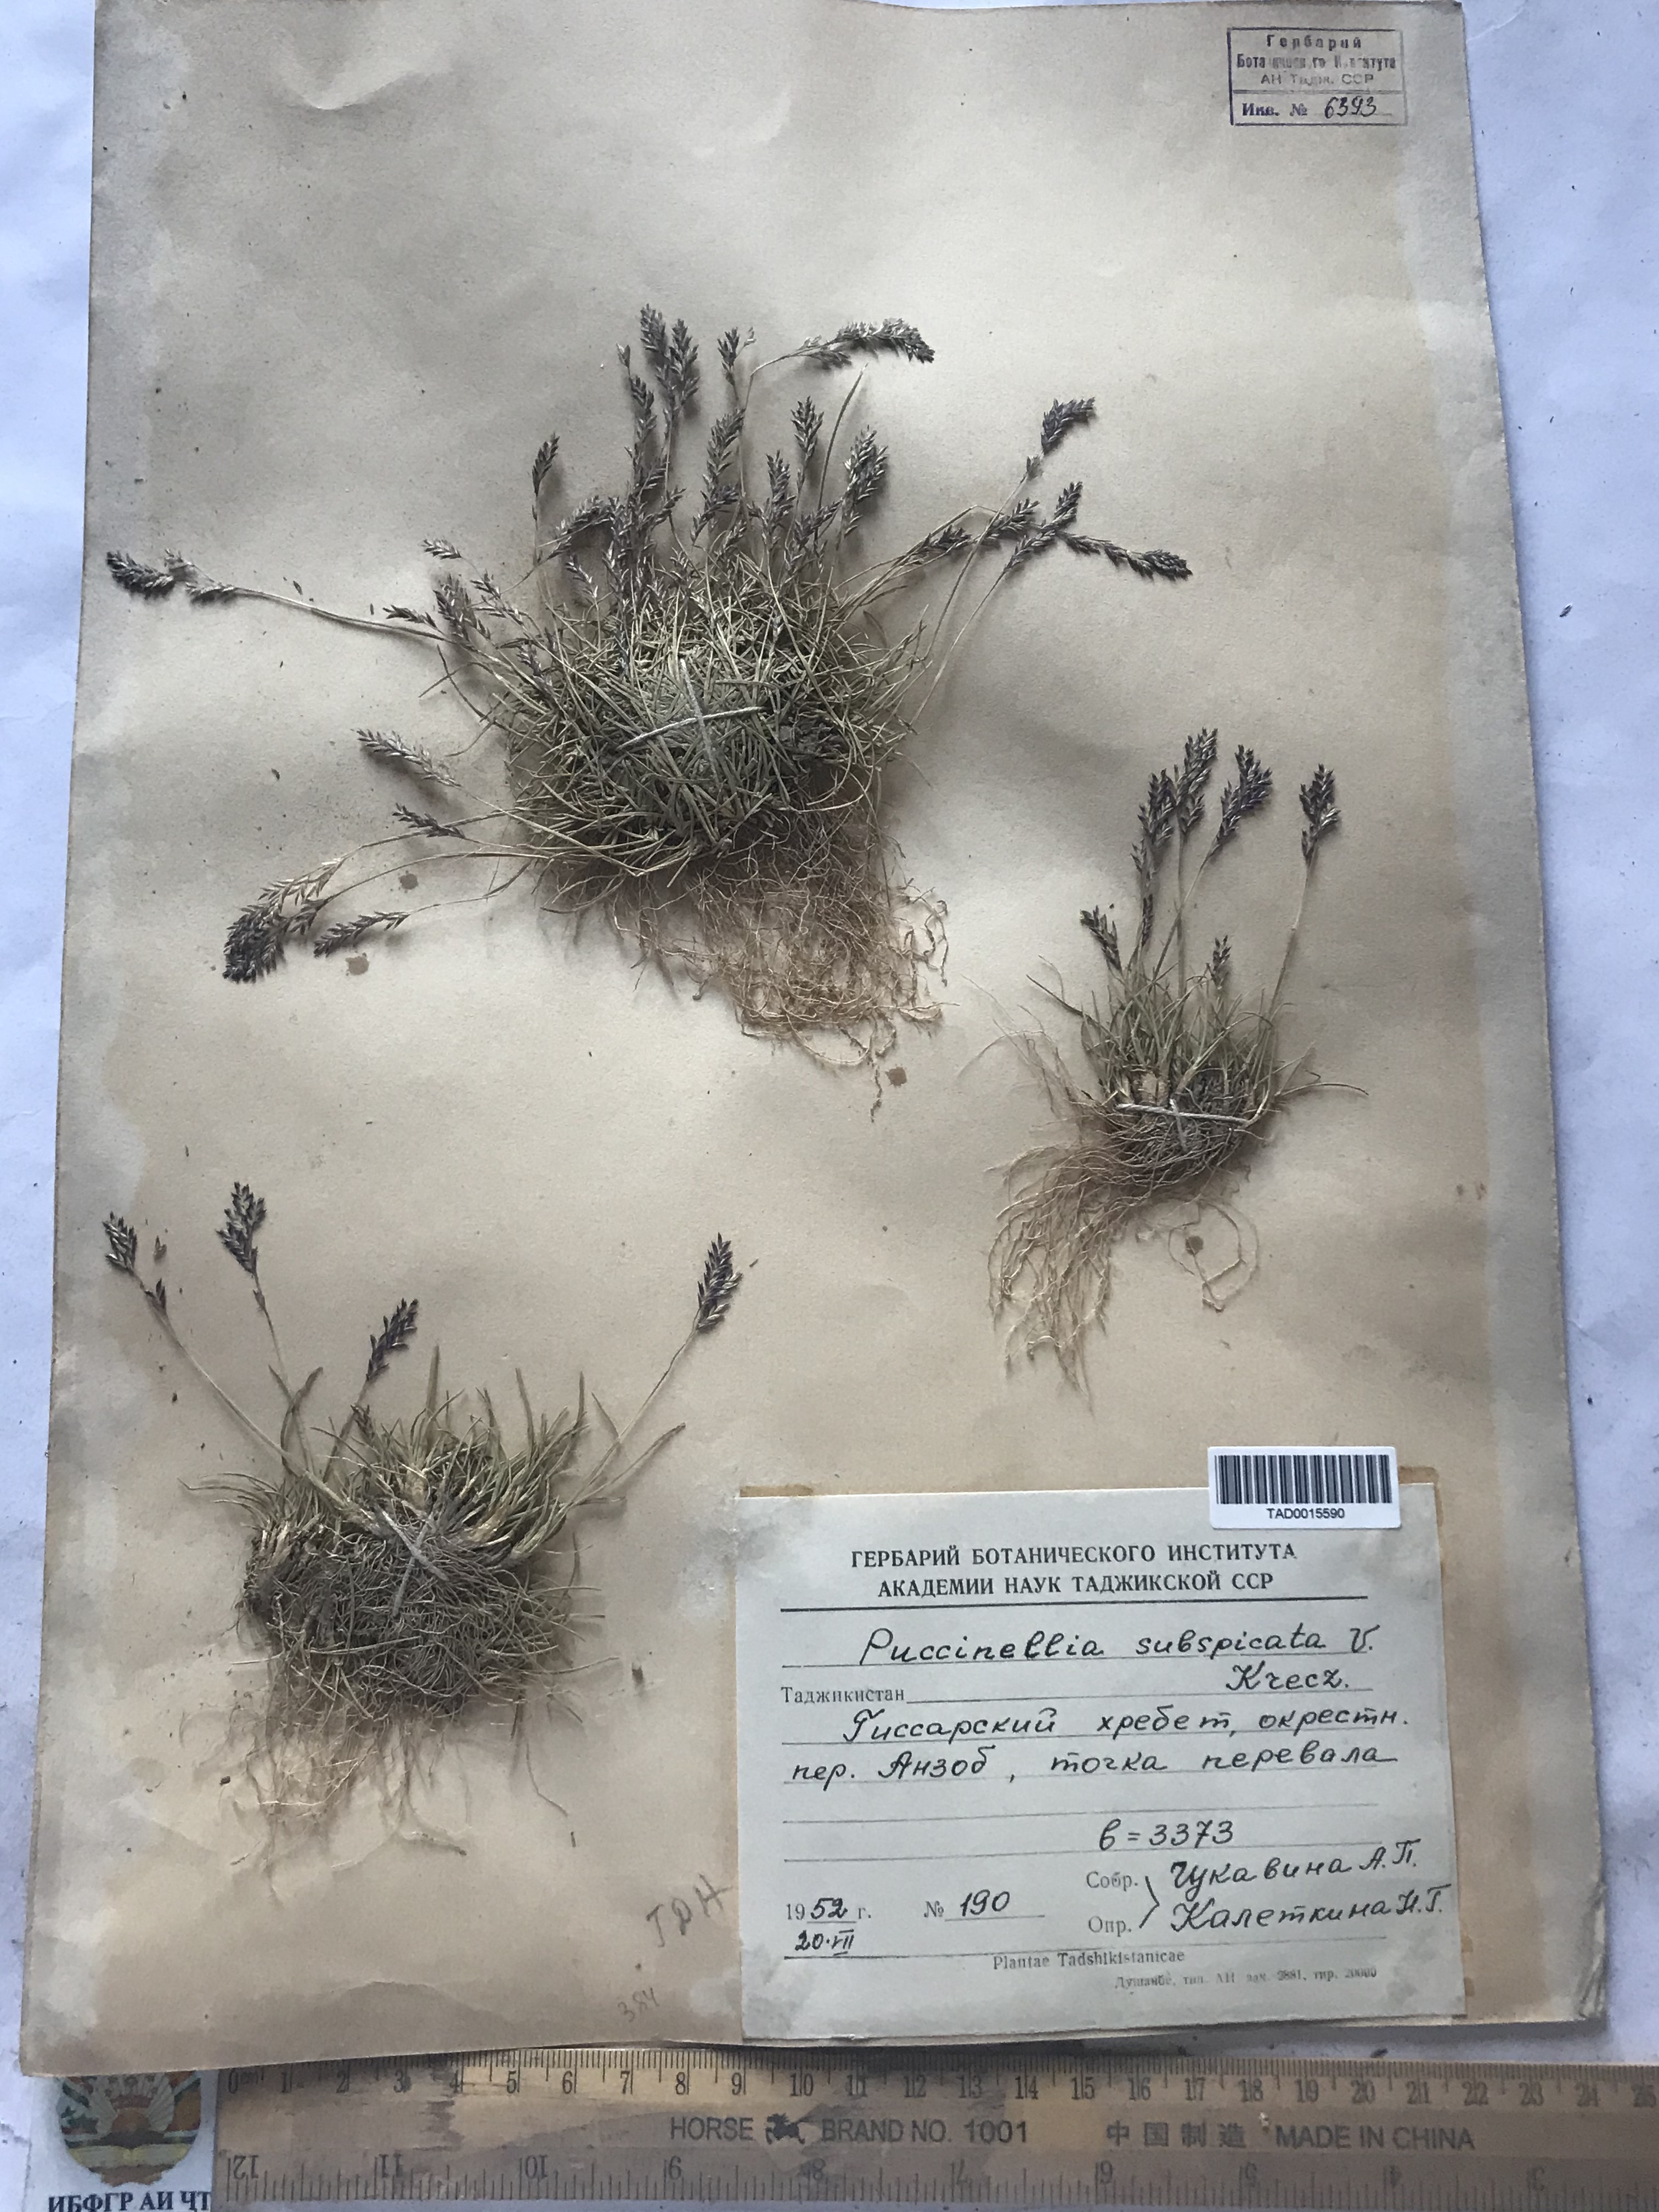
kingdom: Plantae
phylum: Tracheophyta
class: Liliopsida
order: Poales
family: Poaceae
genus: Puccinellia
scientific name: Puccinellia subspicata
